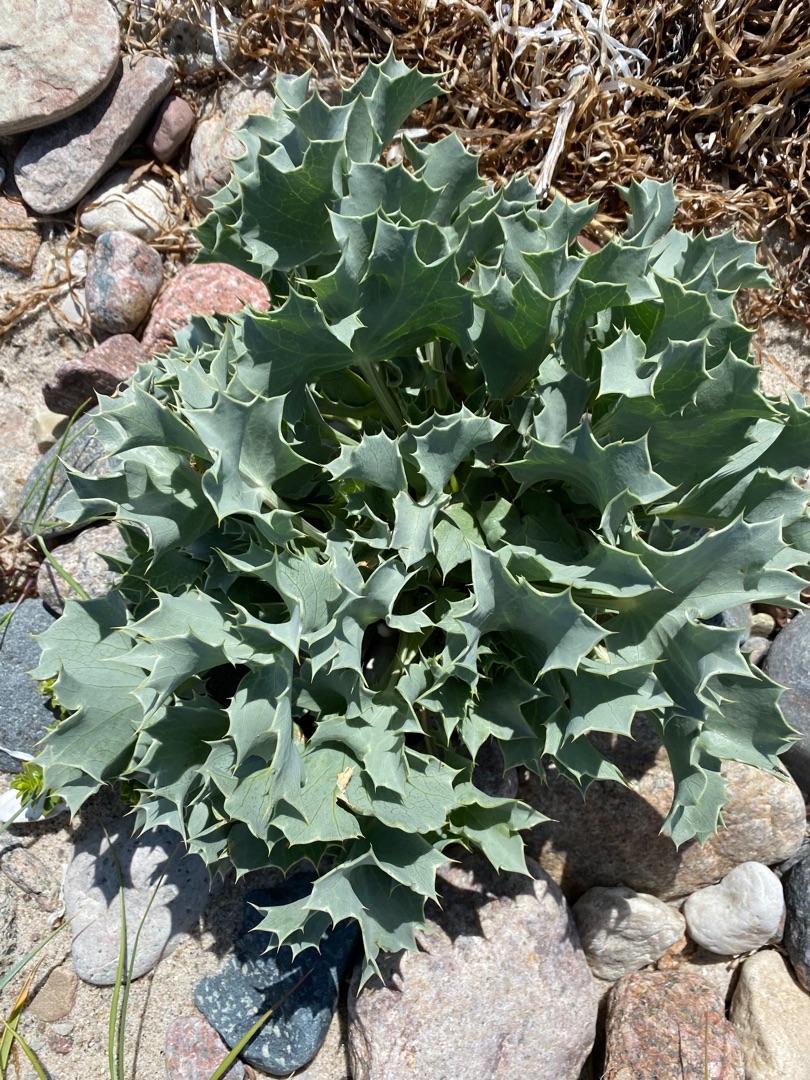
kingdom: Plantae
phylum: Tracheophyta
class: Magnoliopsida
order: Apiales
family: Apiaceae
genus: Eryngium
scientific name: Eryngium maritimum
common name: Strand-mandstro
